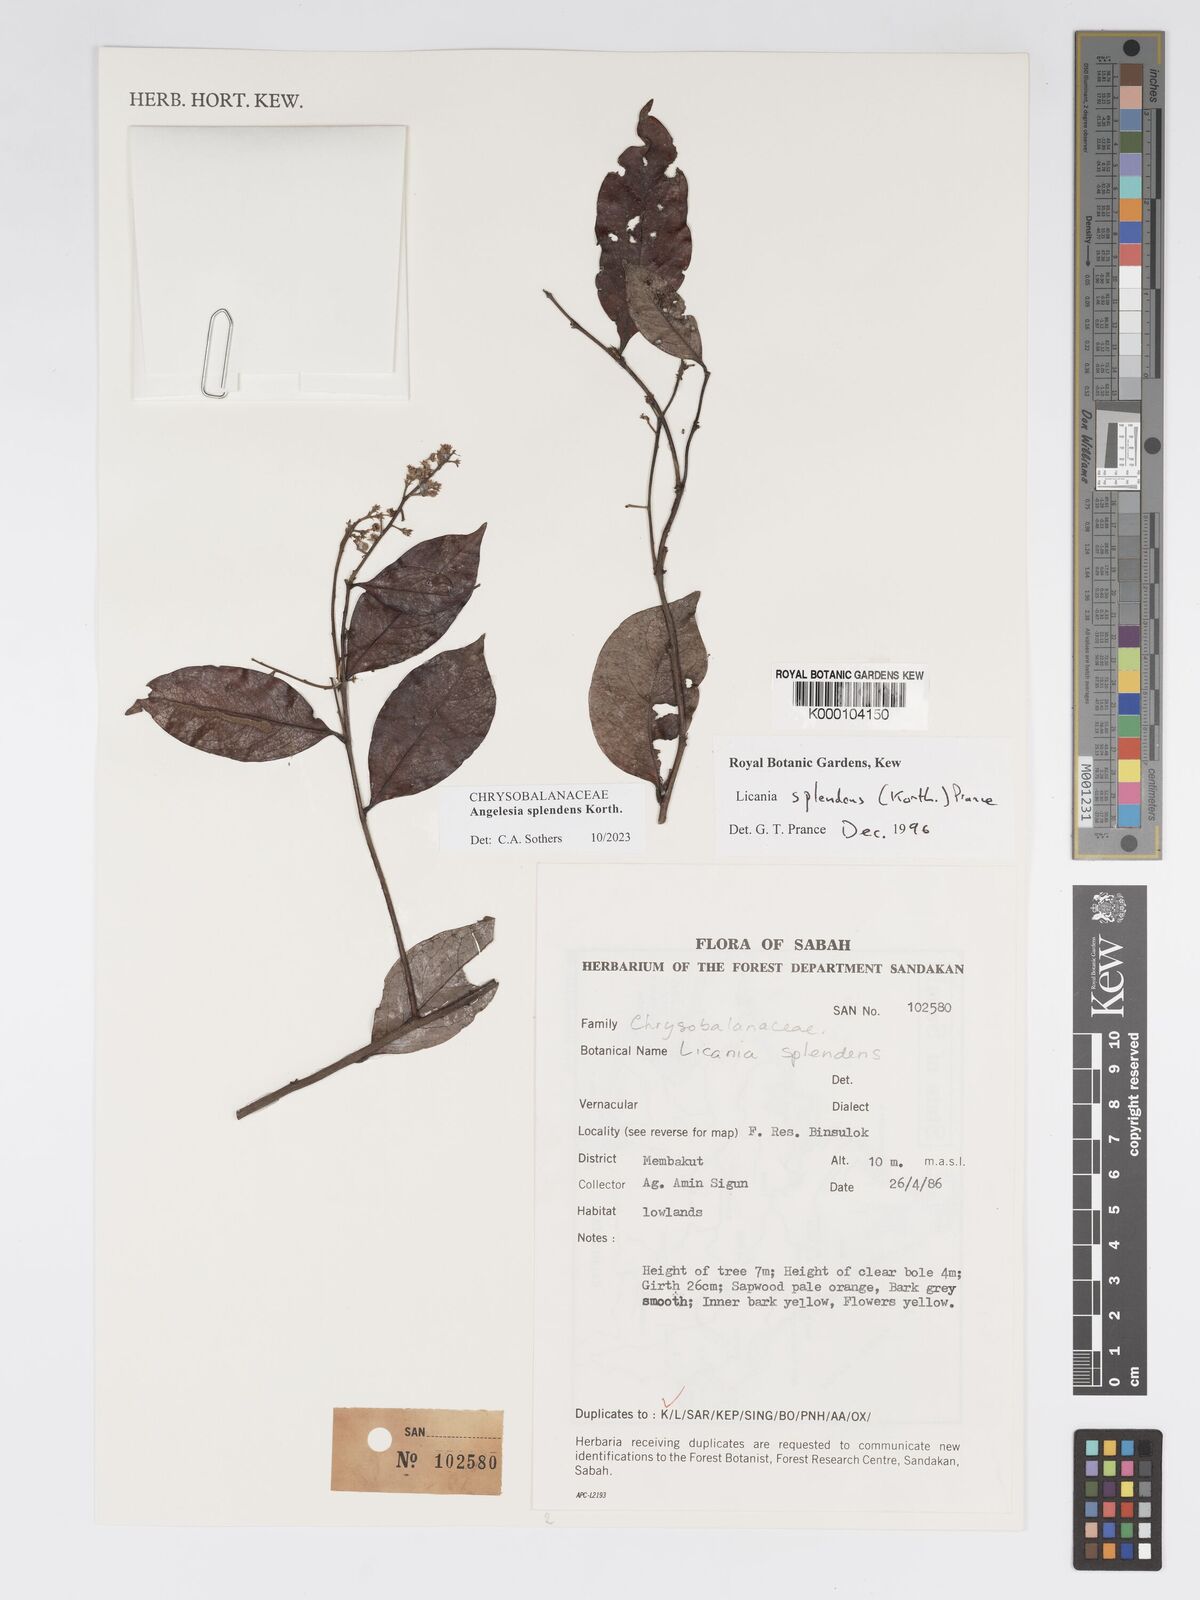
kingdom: Plantae
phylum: Tracheophyta
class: Magnoliopsida
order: Malpighiales
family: Chrysobalanaceae
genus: Angelesia
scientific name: Angelesia splendens
